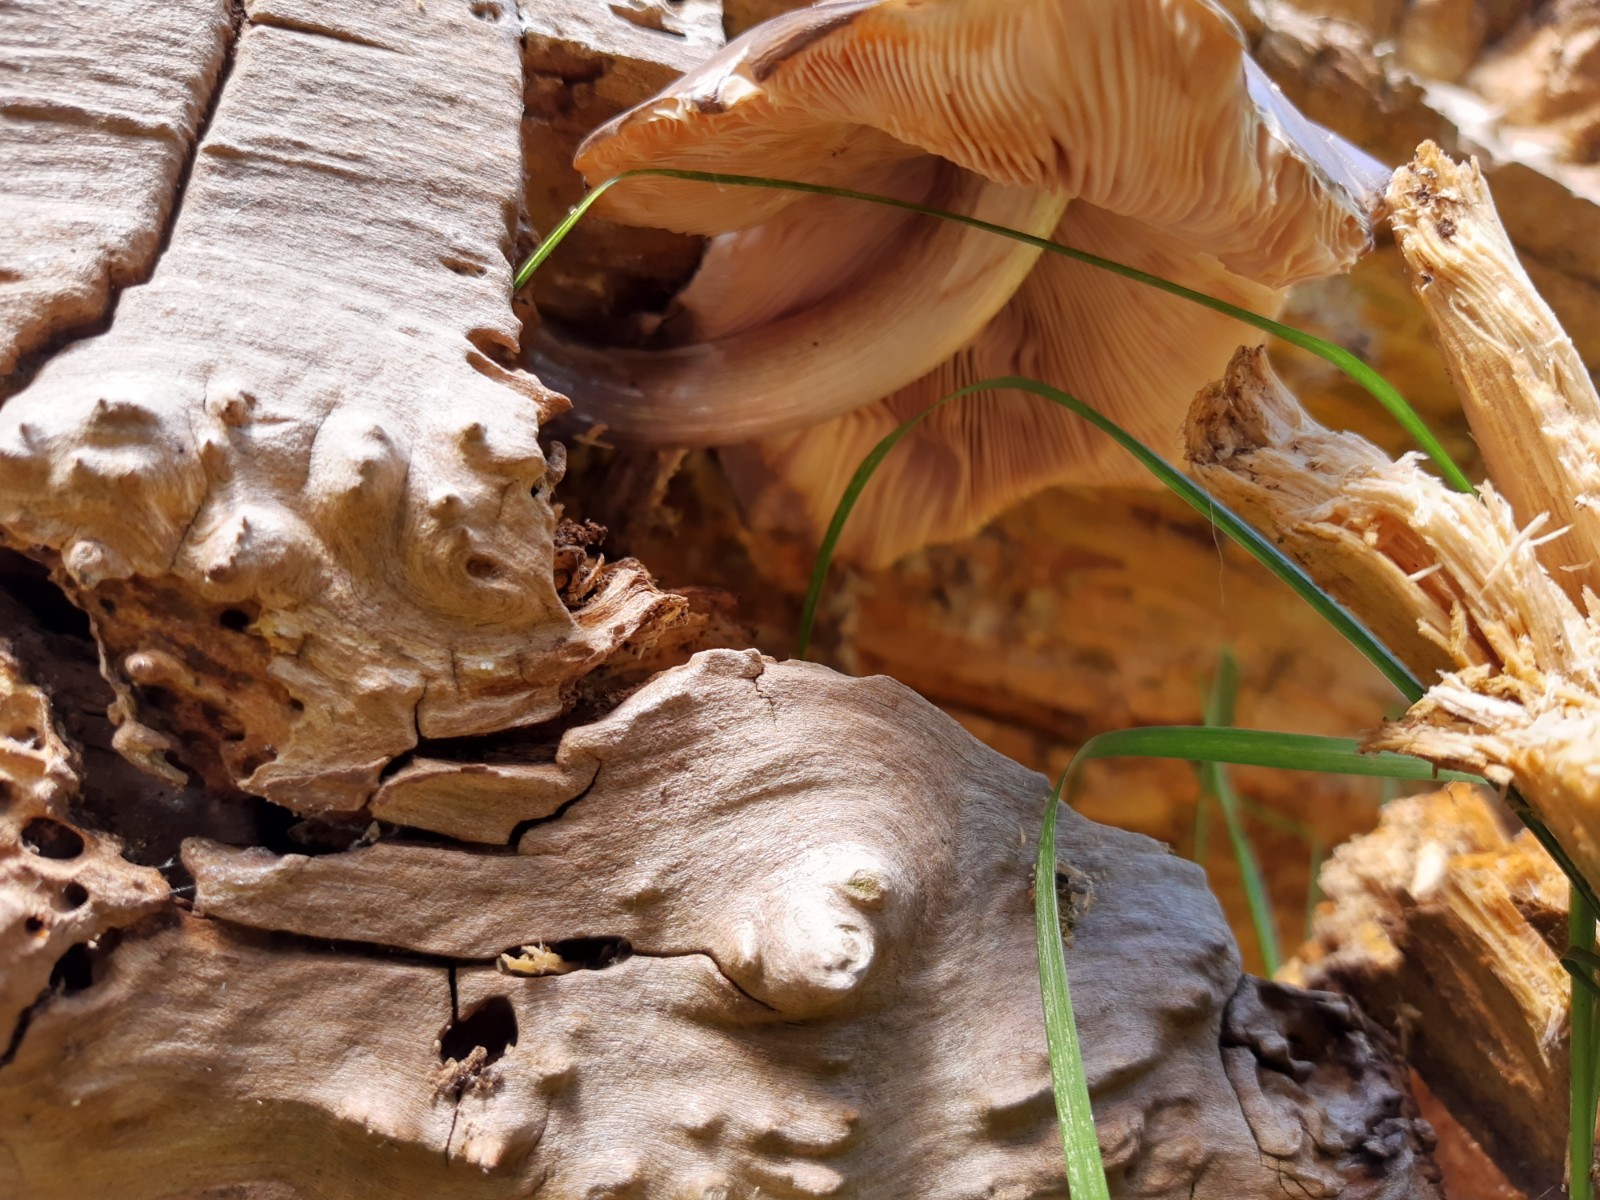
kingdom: Fungi
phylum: Basidiomycota
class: Agaricomycetes
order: Agaricales
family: Pluteaceae
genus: Pluteus
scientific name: Pluteus cervinus
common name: sodfarvet skærmhat
